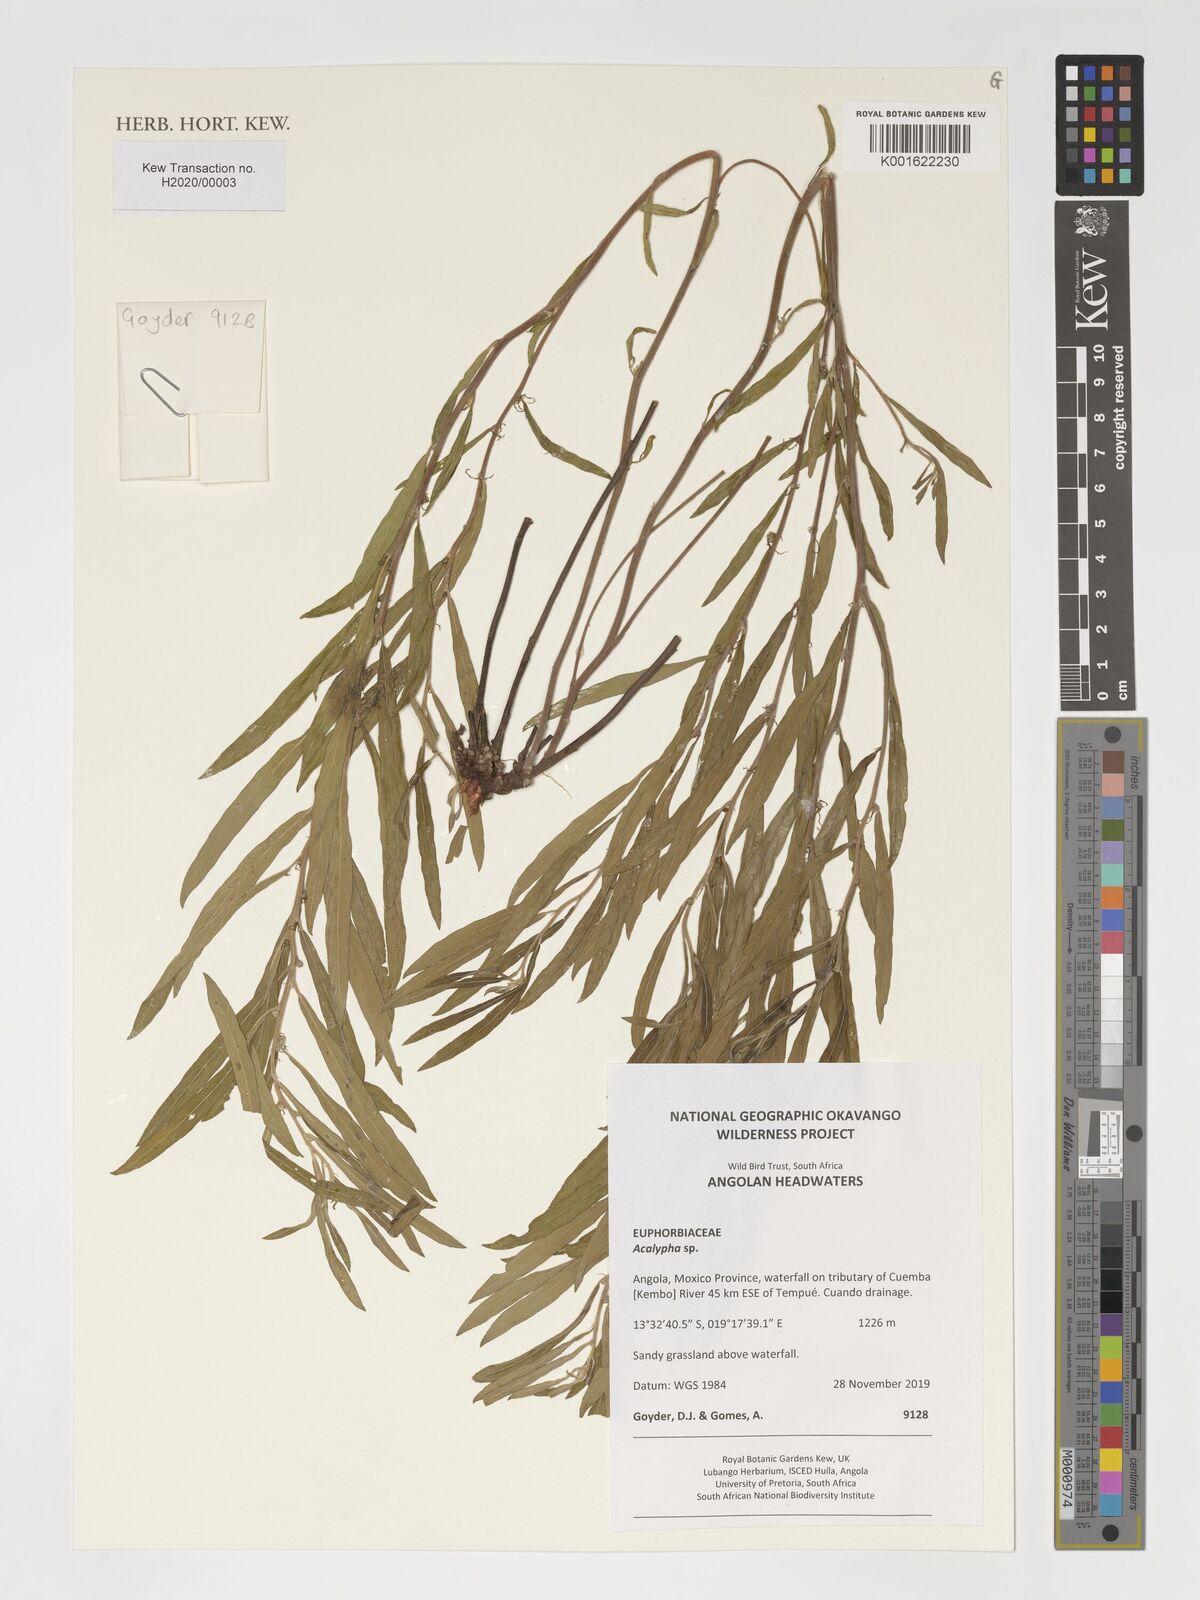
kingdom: Plantae
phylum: Tracheophyta
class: Magnoliopsida
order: Malpighiales
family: Euphorbiaceae
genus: Acalypha
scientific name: Acalypha
